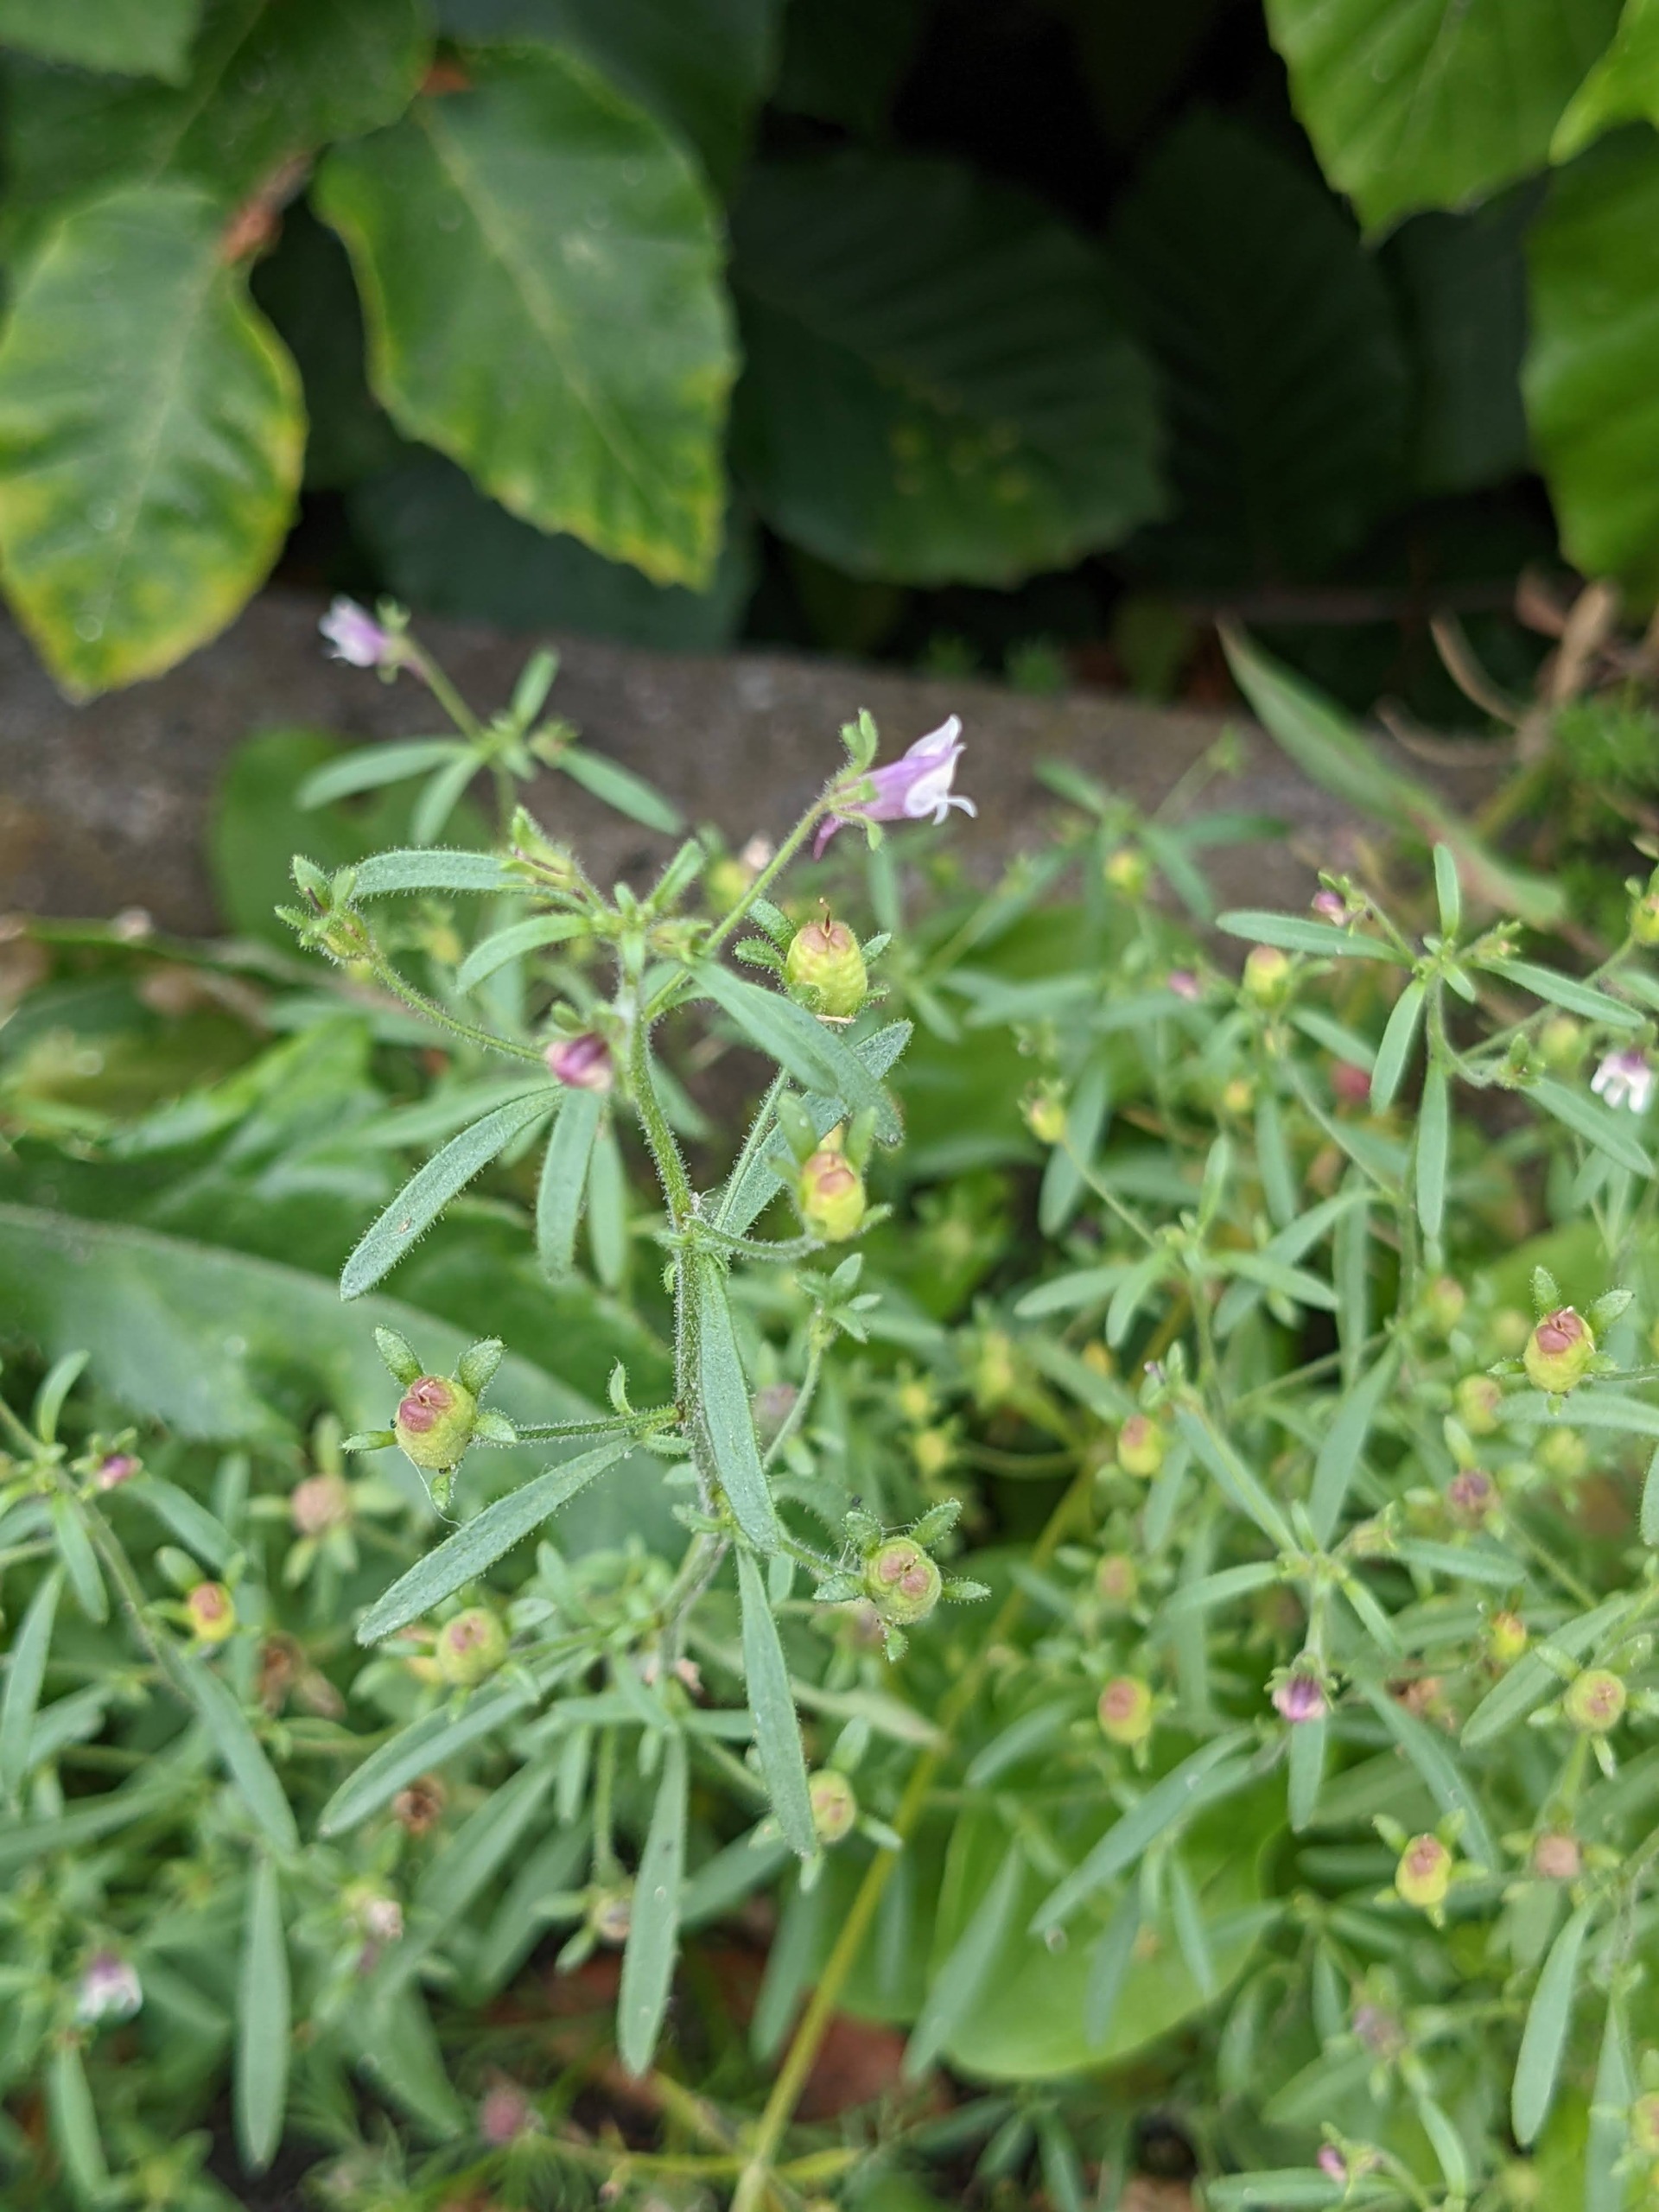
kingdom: Plantae
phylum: Tracheophyta
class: Magnoliopsida
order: Lamiales
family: Plantaginaceae
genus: Chaenorhinum
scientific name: Chaenorhinum minus
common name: Liden torskemund
